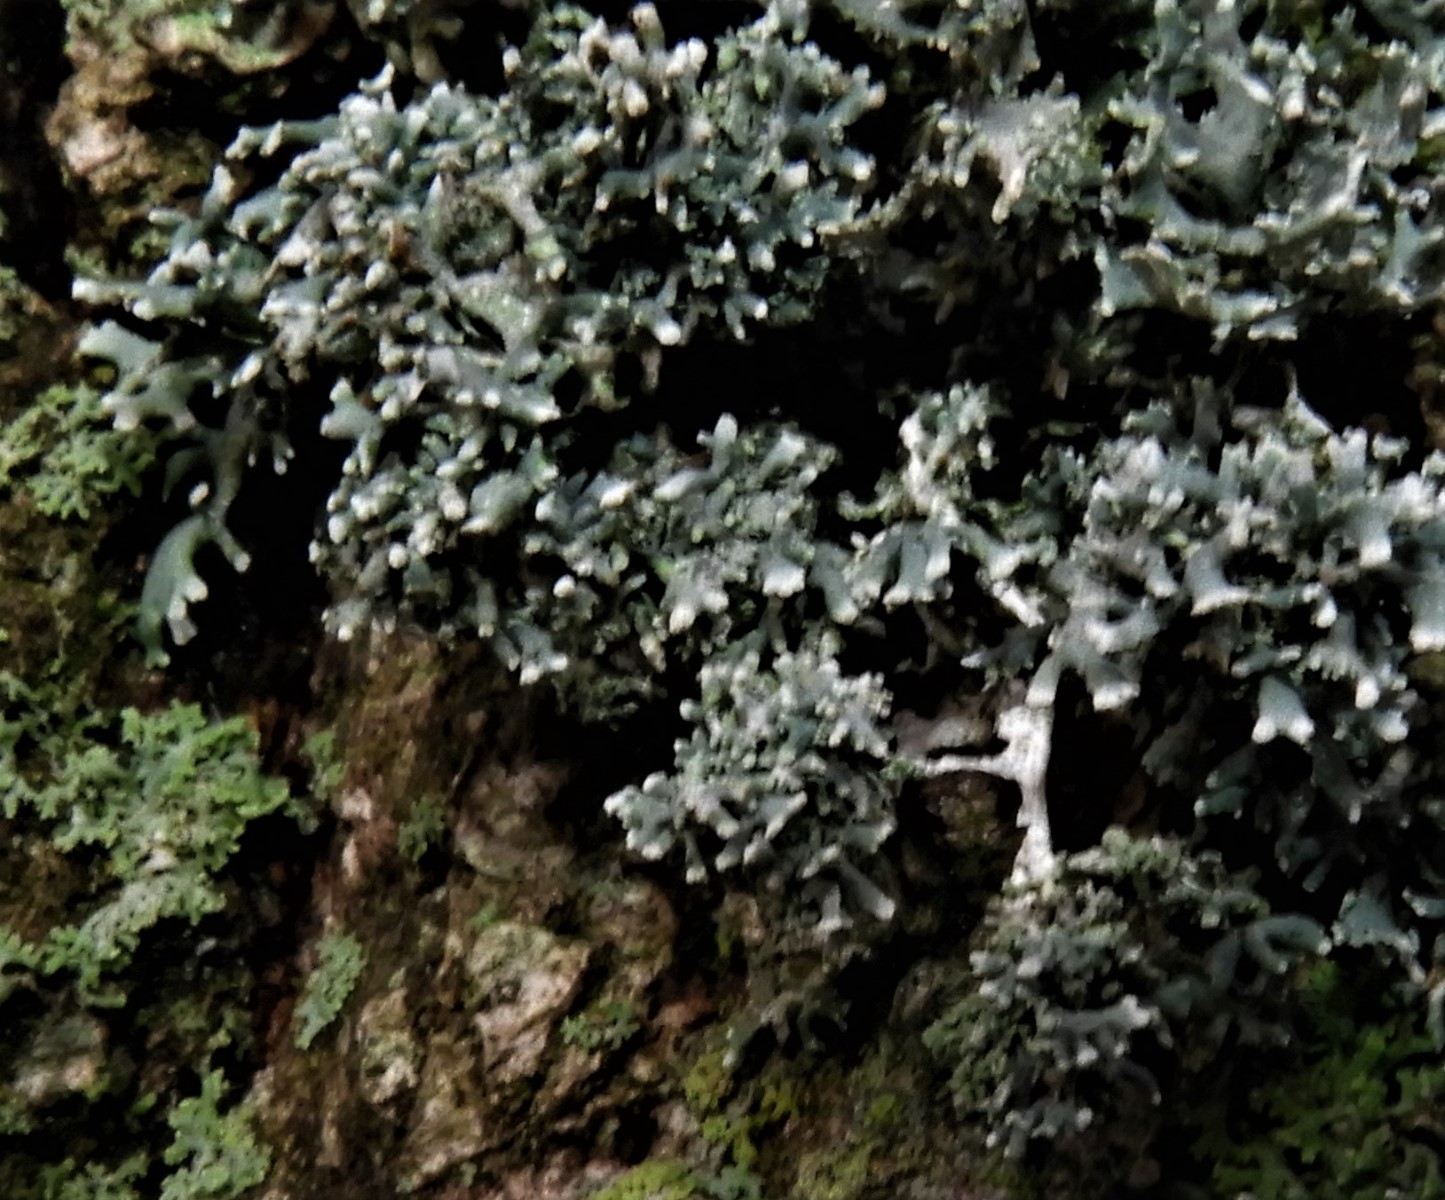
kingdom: Fungi
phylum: Ascomycota
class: Lecanoromycetes
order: Lecanorales
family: Parmeliaceae
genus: Evernia
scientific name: Evernia prunastri
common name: almindelig slåenlav
